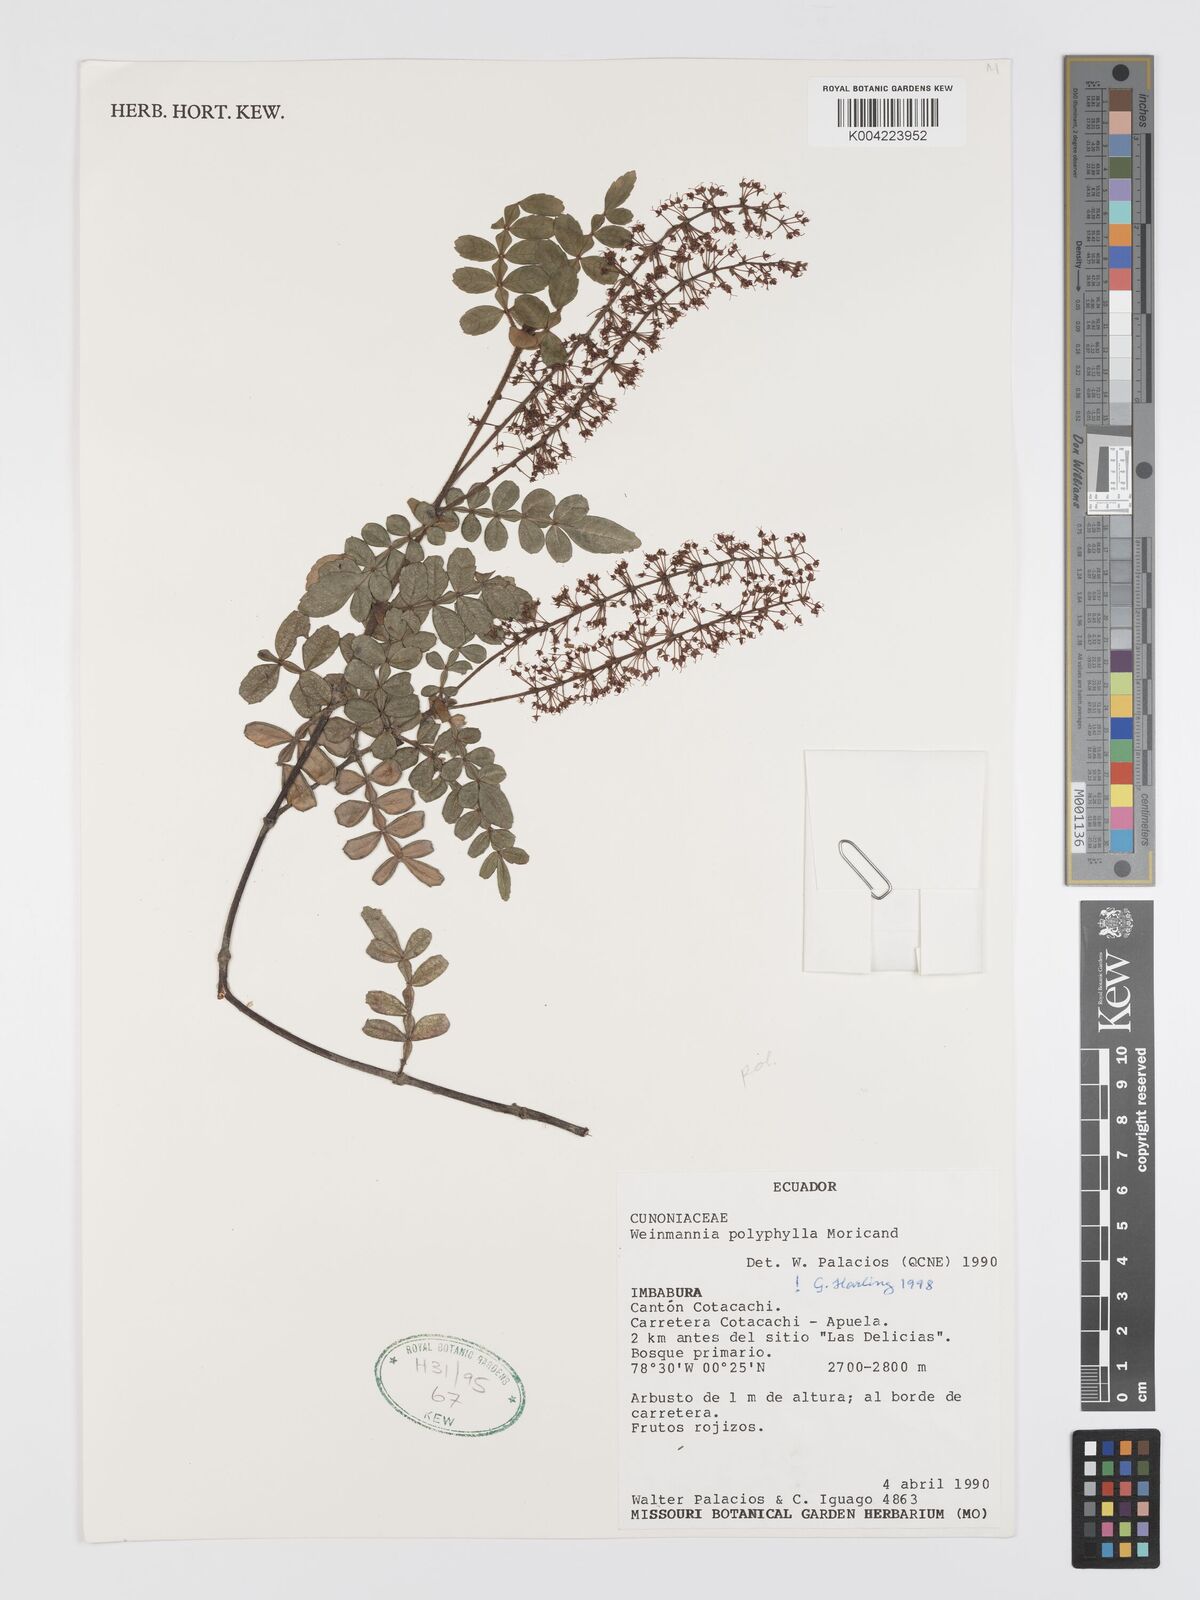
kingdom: Plantae
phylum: Tracheophyta
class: Magnoliopsida
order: Oxalidales
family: Cunoniaceae
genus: Weinmannia
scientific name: Weinmannia polyphylla
